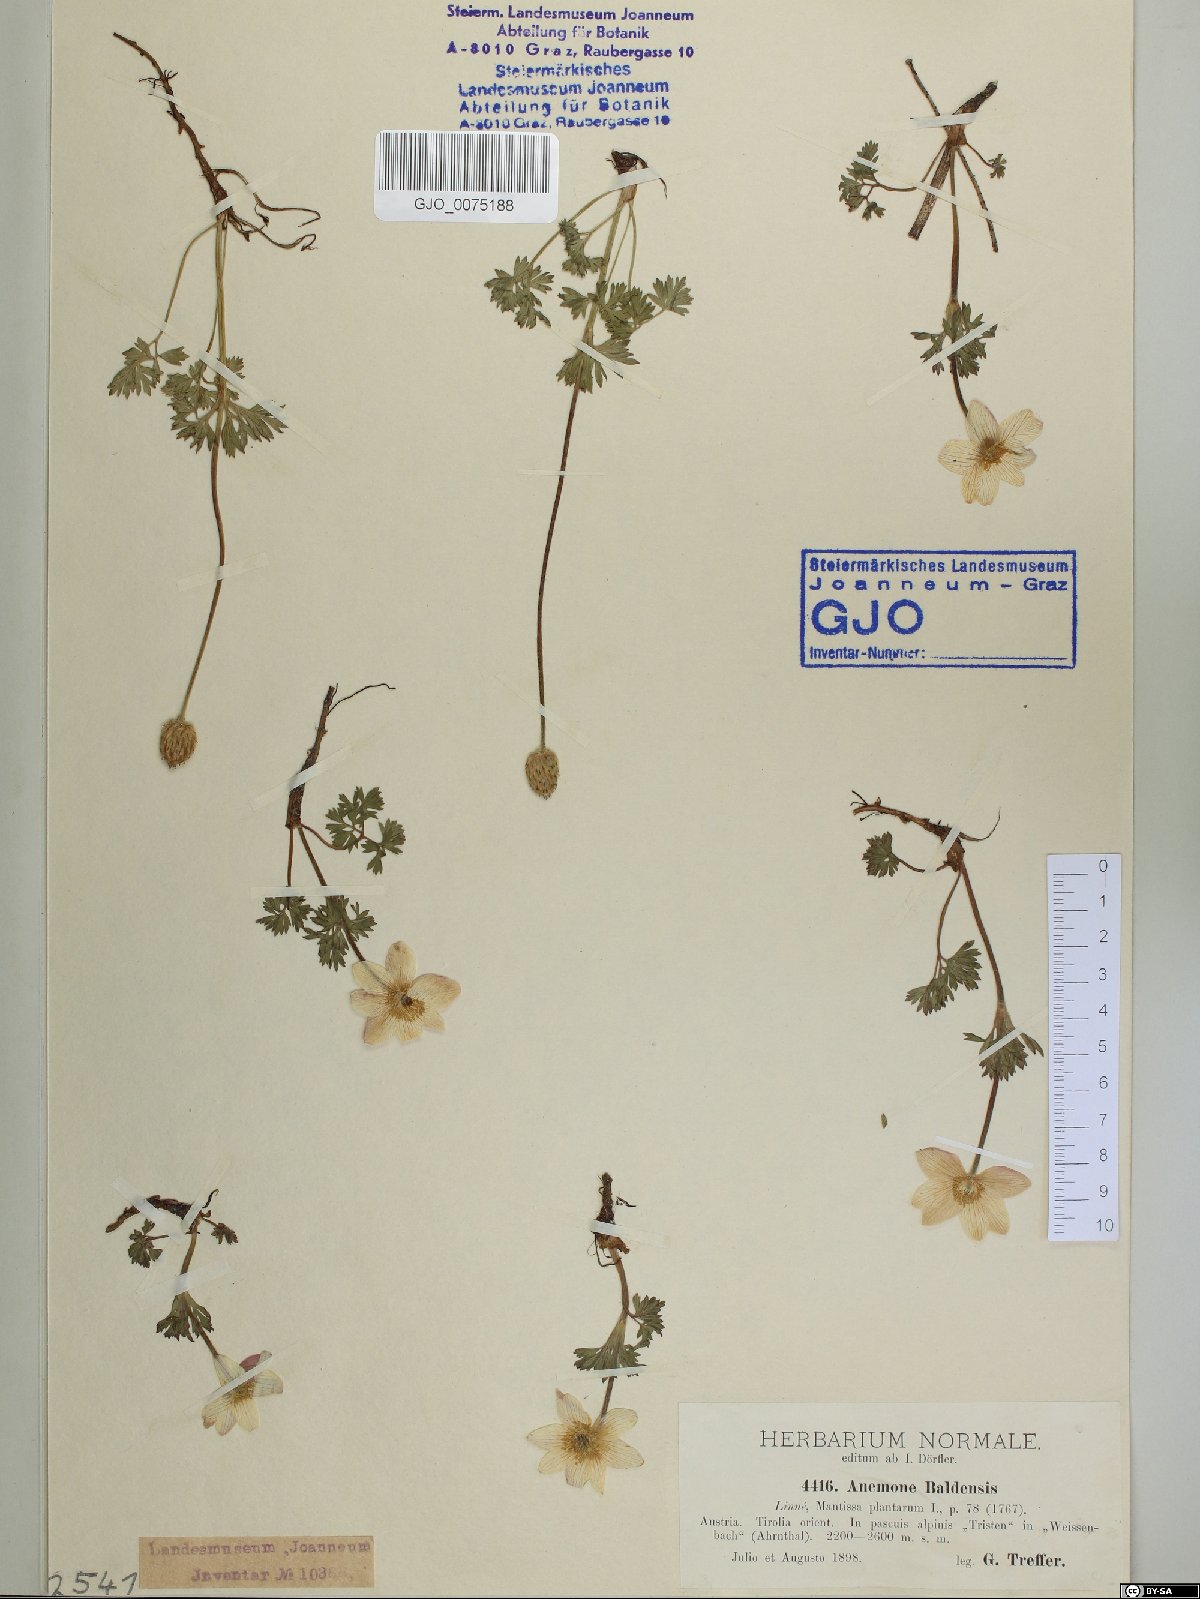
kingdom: Plantae
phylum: Tracheophyta
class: Magnoliopsida
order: Ranunculales
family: Ranunculaceae
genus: Anemone
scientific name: Anemone baldensis
